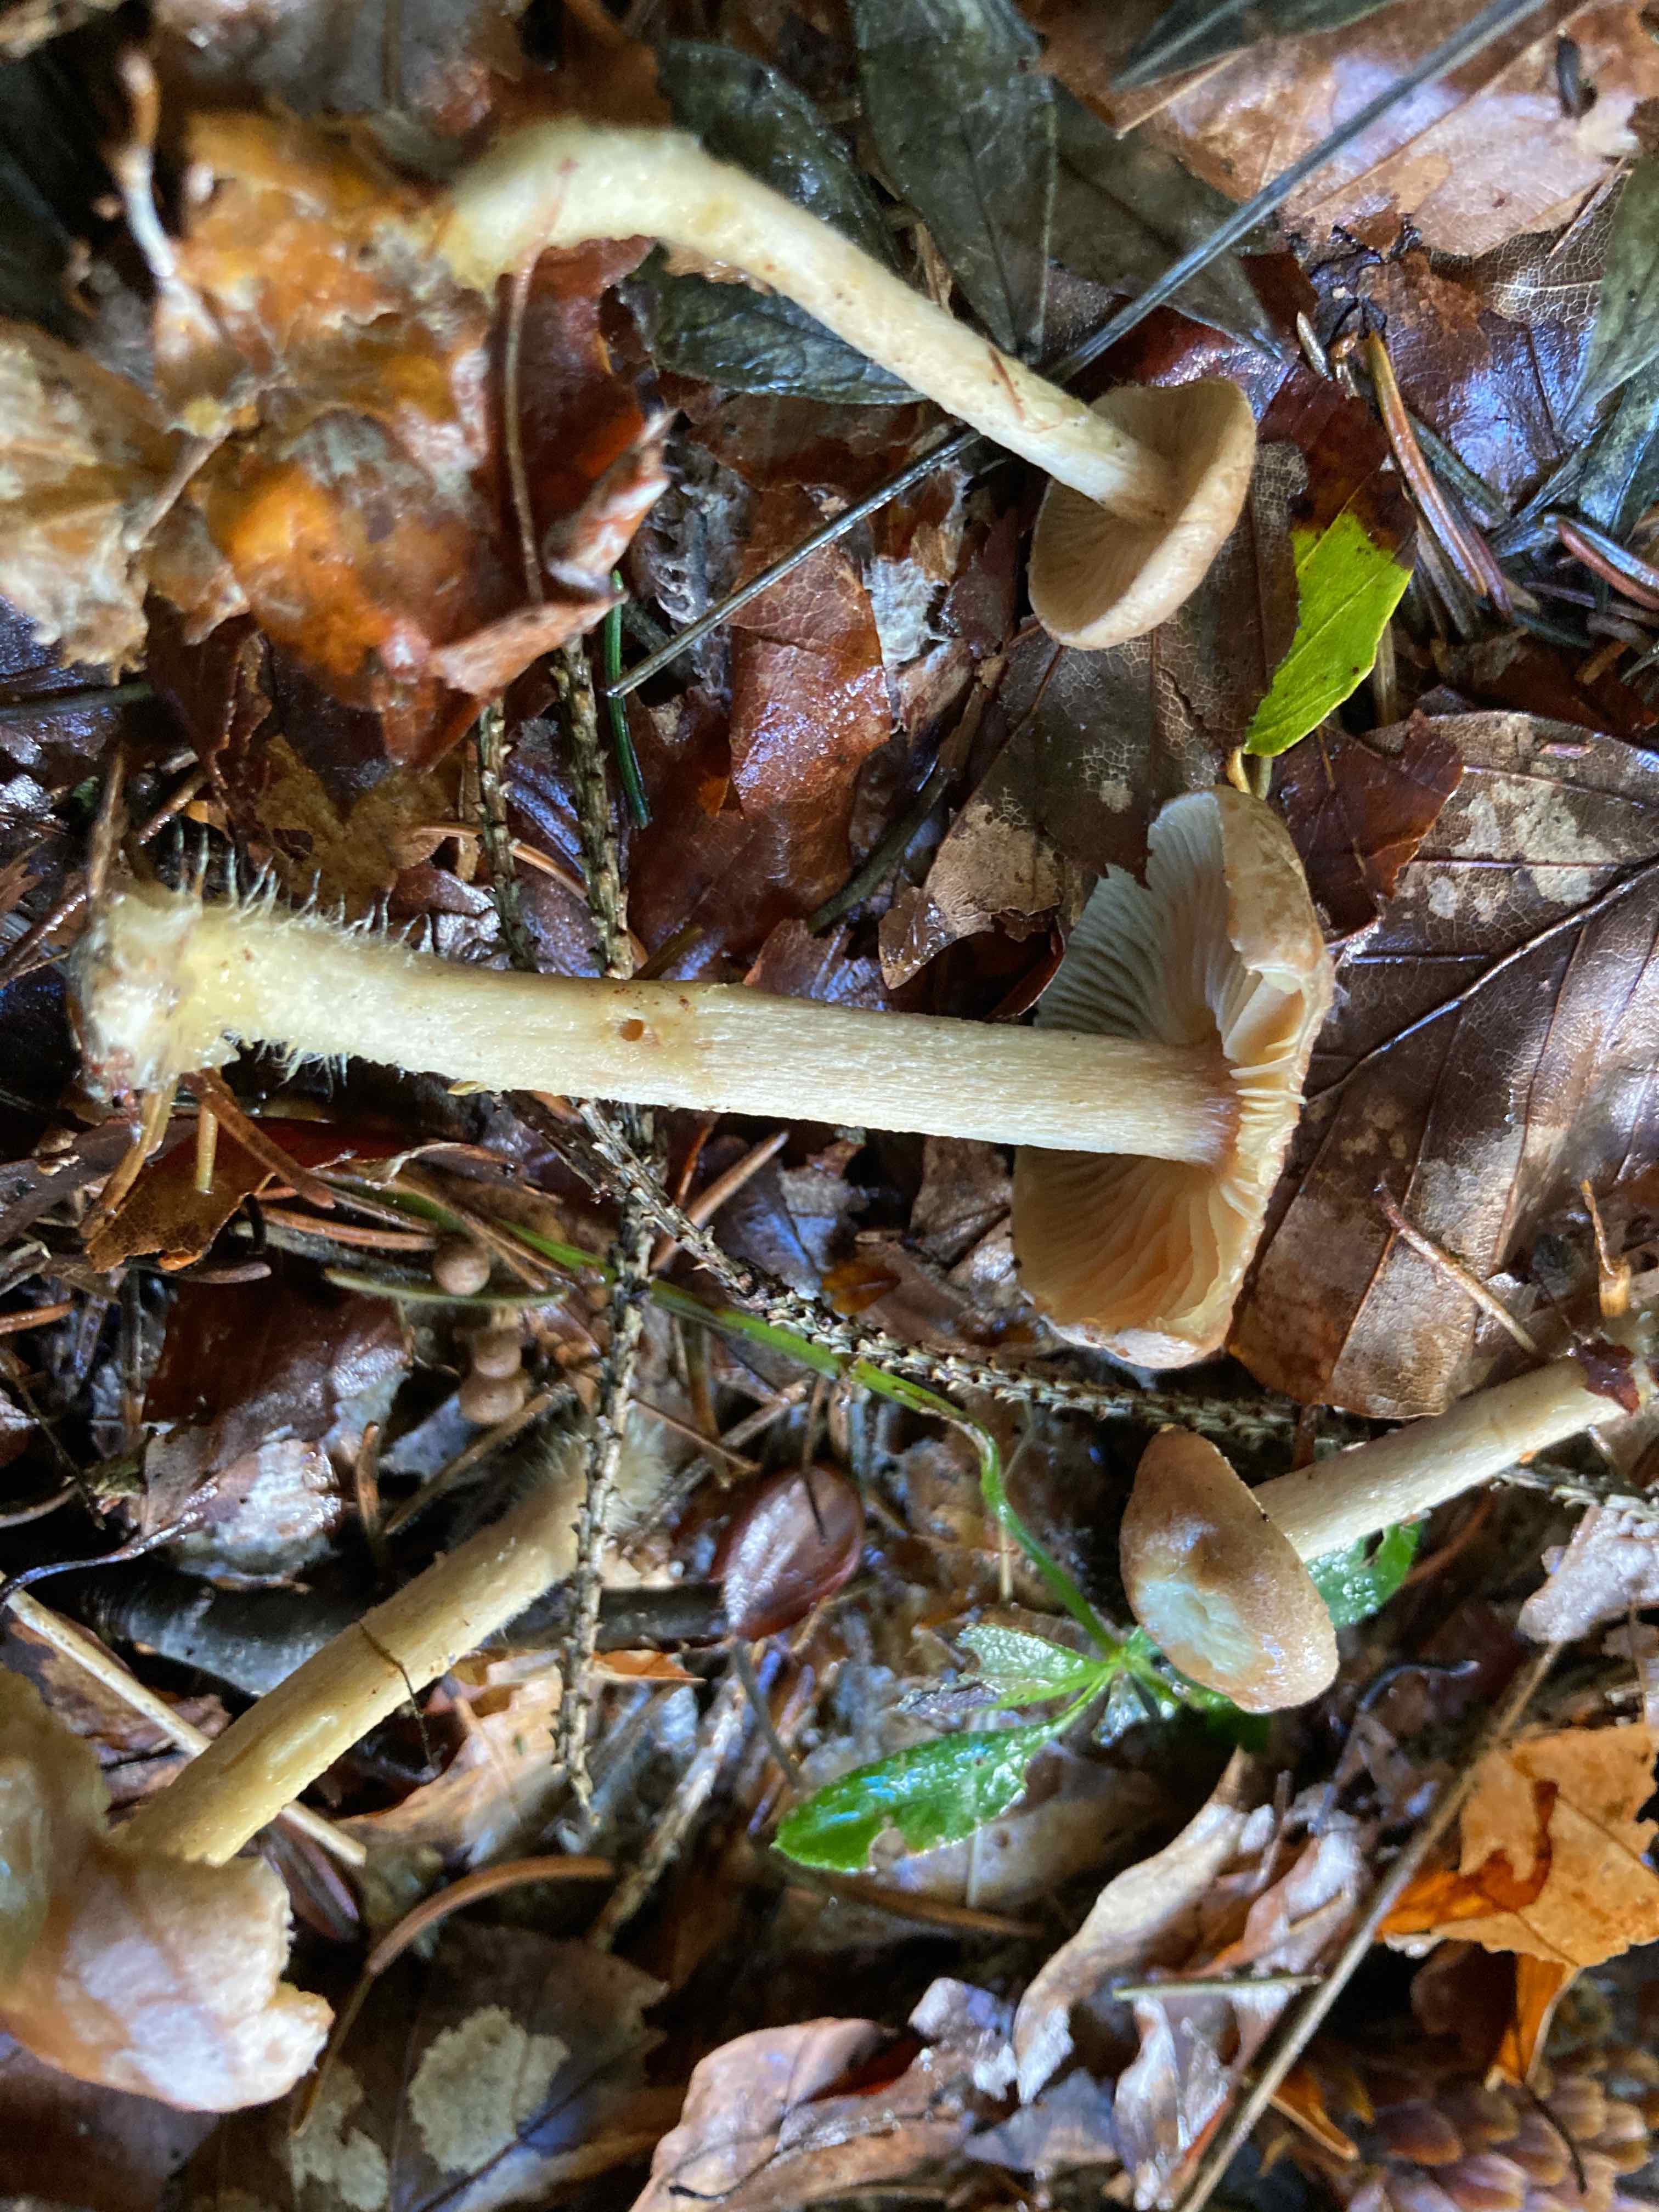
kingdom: Fungi
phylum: Basidiomycota
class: Agaricomycetes
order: Agaricales
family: Omphalotaceae
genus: Collybiopsis
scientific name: Collybiopsis peronata
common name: bestøvlet fladhat
